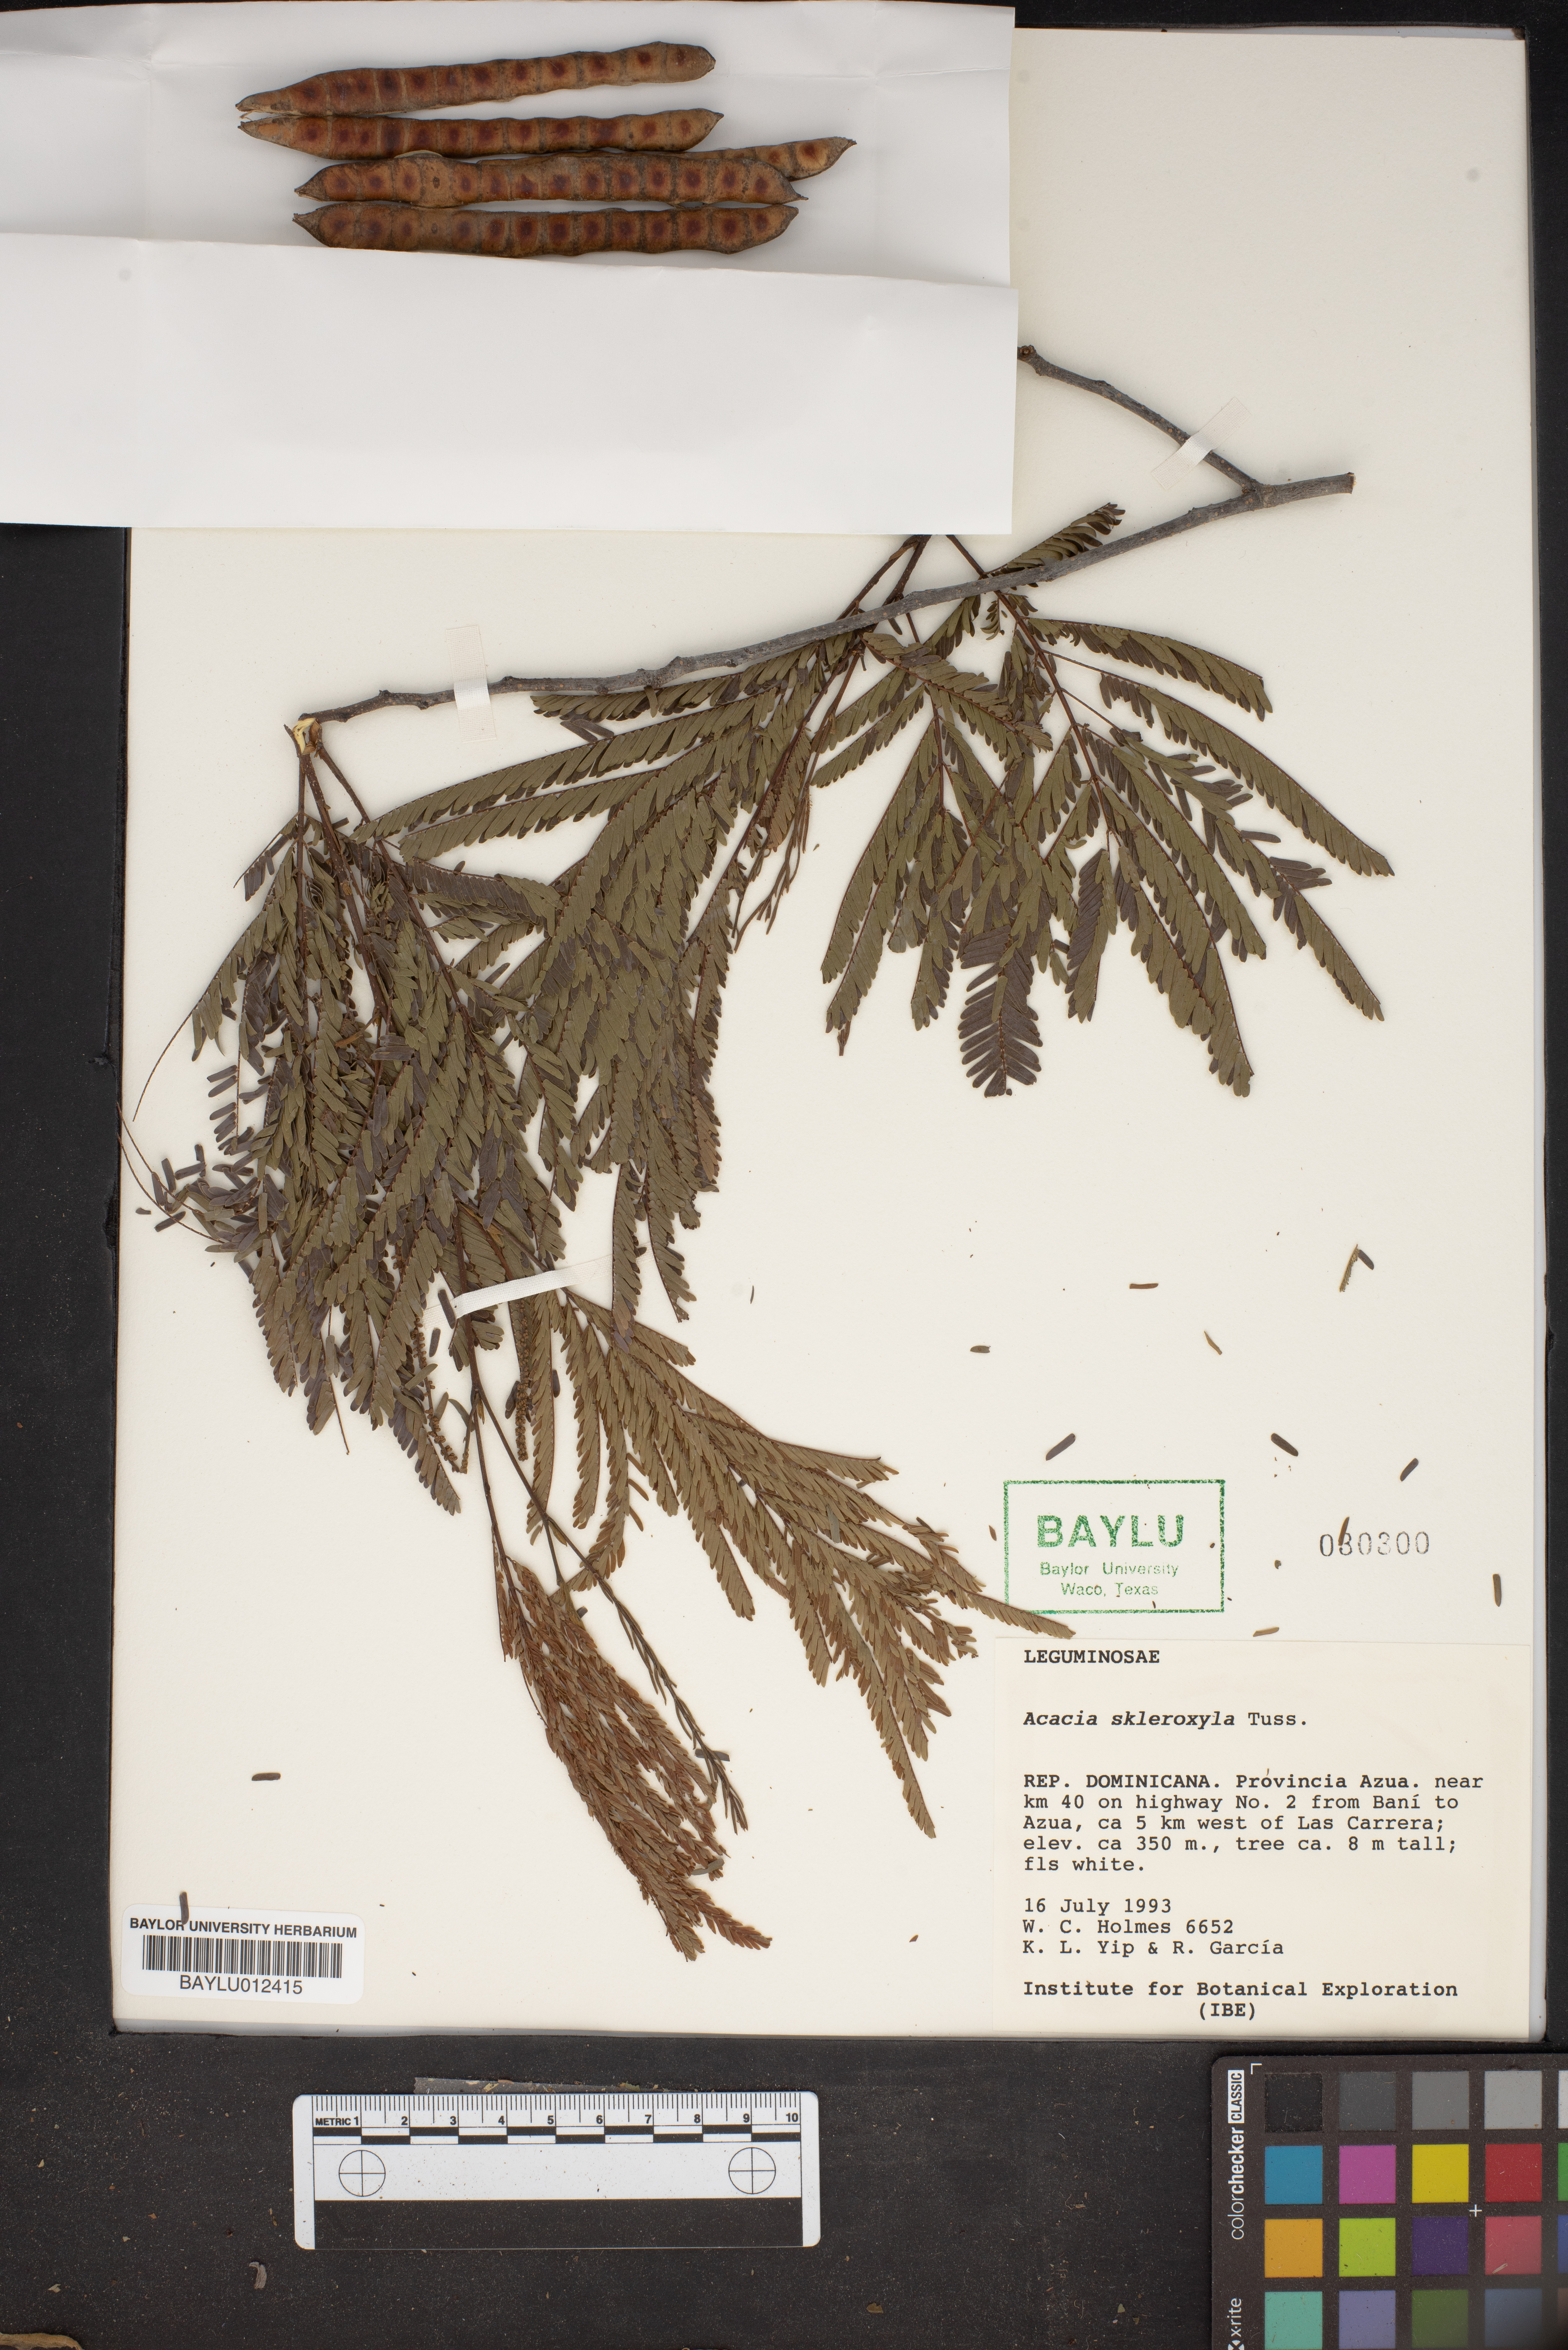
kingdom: Plantae
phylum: Tracheophyta
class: Magnoliopsida
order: Fabales
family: Fabaceae
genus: Parasenegalia
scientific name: Parasenegalia skleroxyla
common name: Candelón
